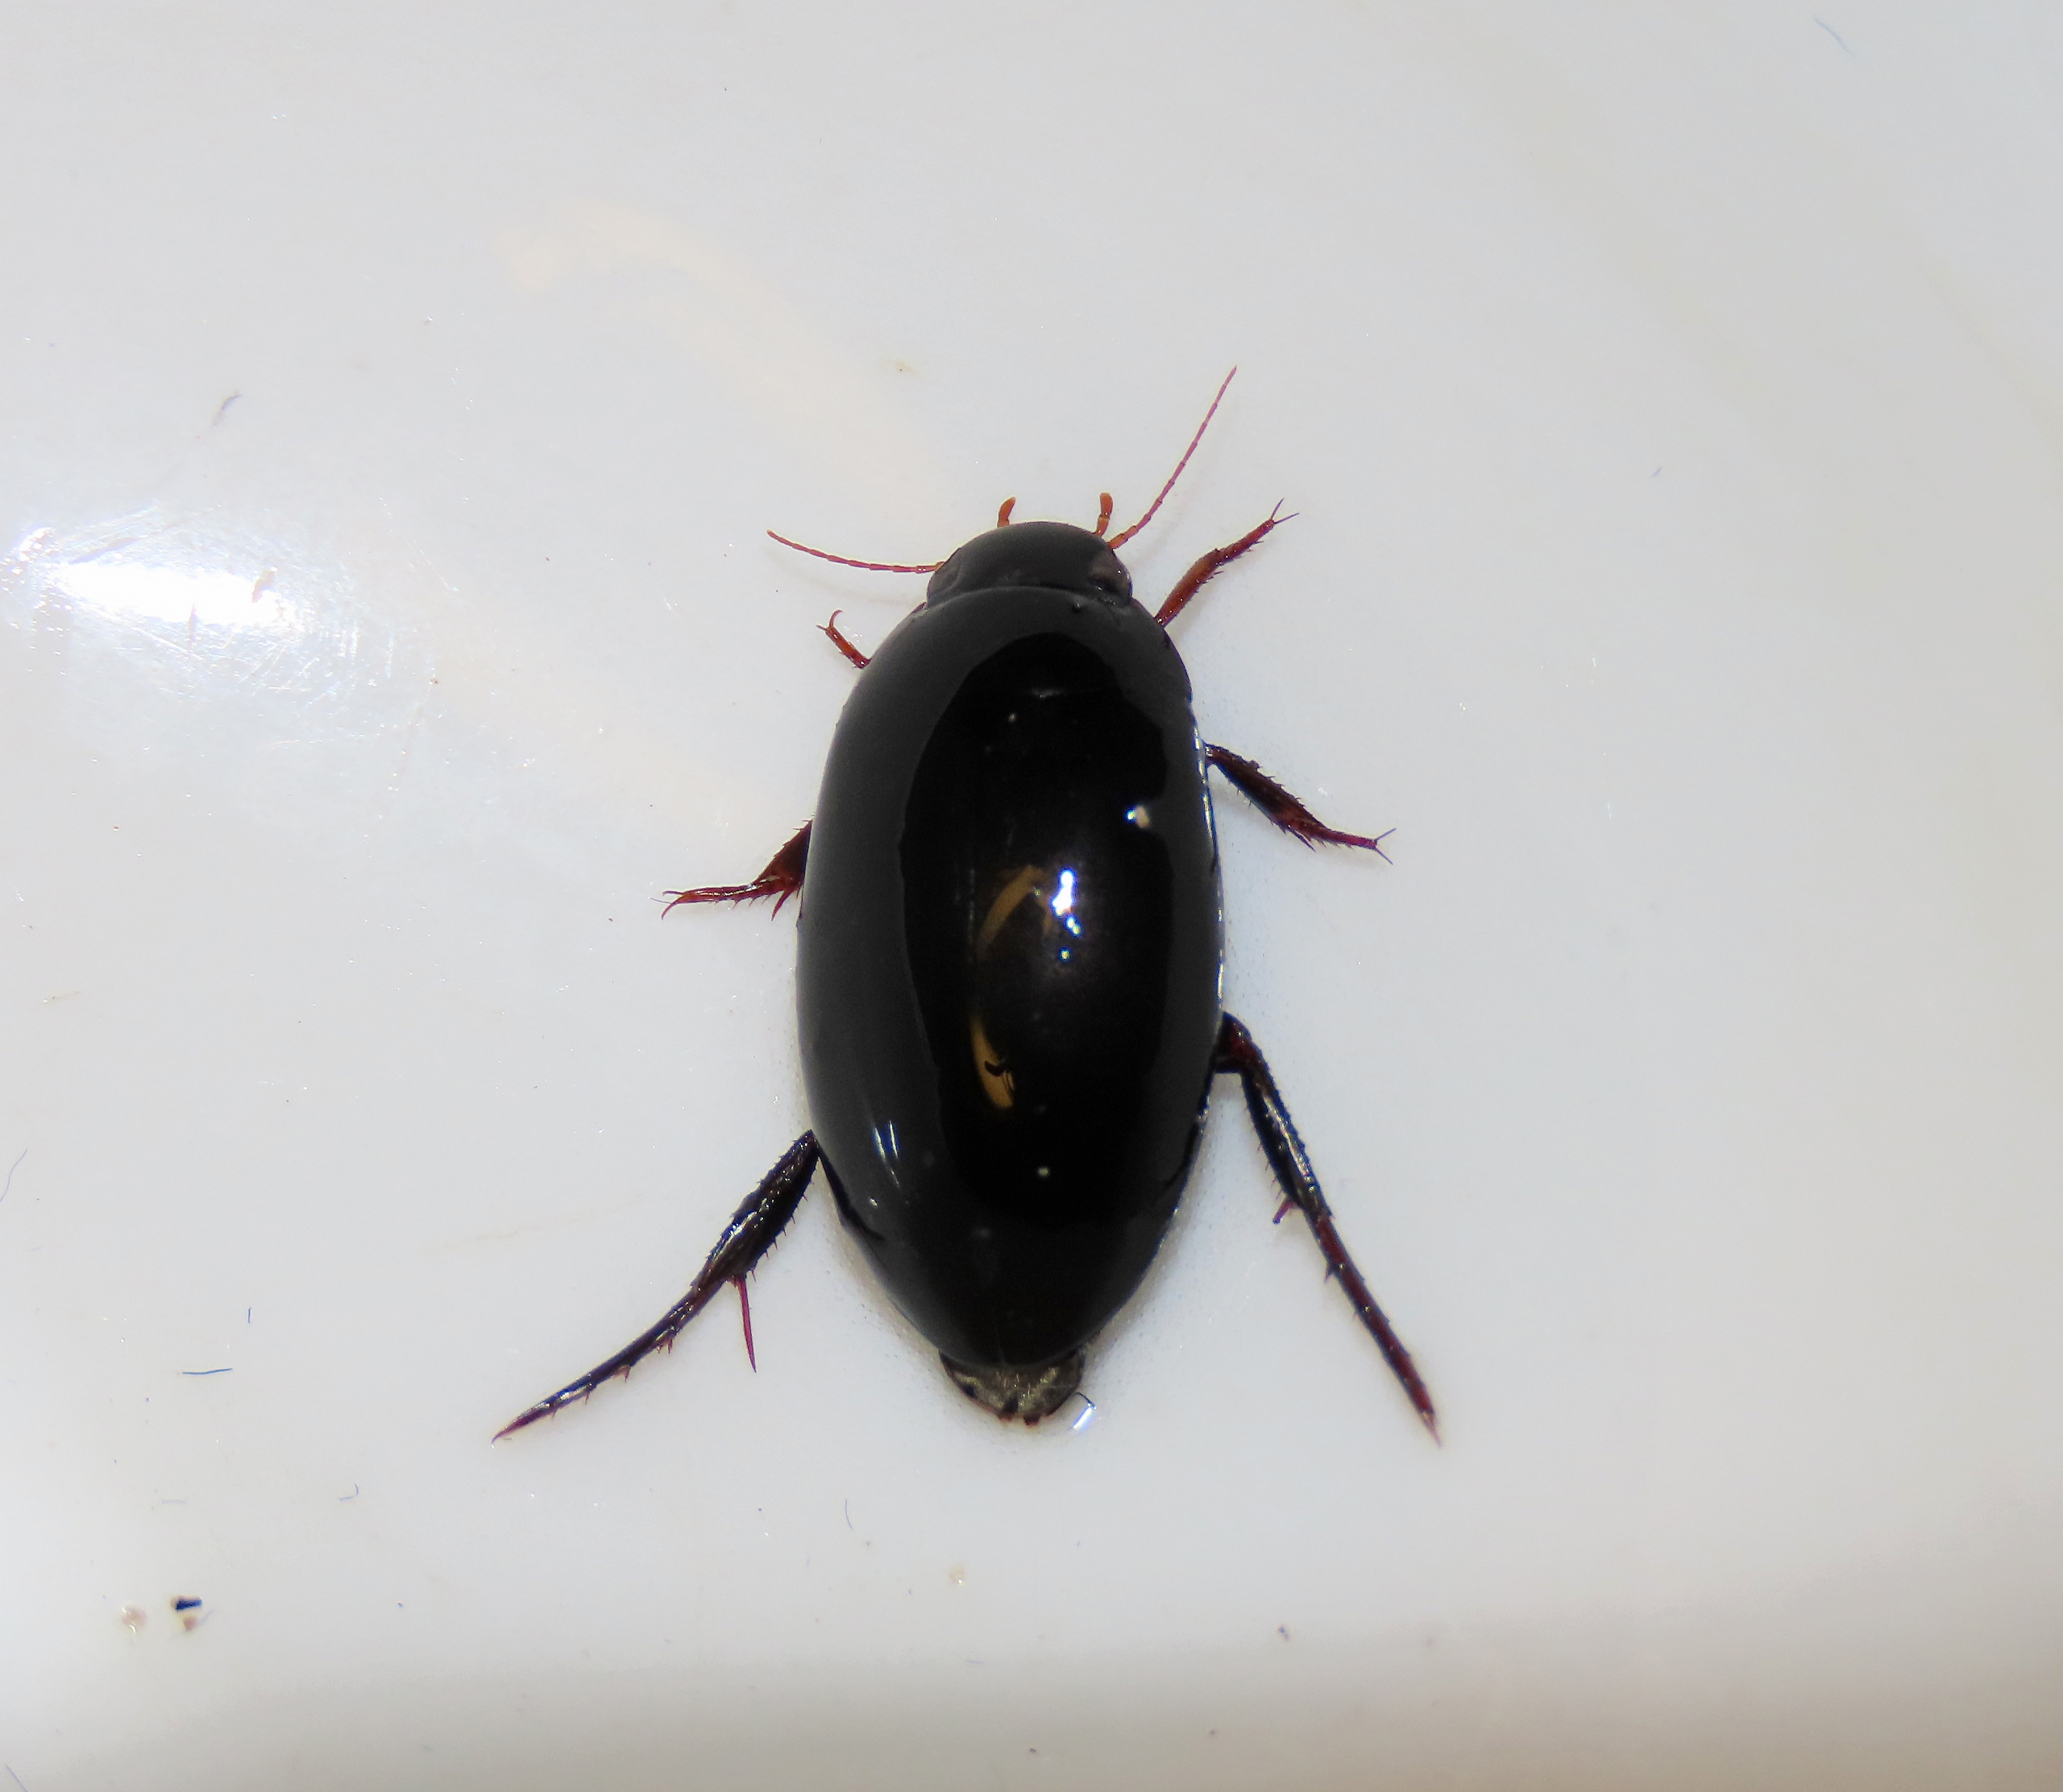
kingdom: Animalia
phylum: Arthropoda
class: Insecta
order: Coleoptera
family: Dytiscidae
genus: Nartus
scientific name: Nartus grapii
